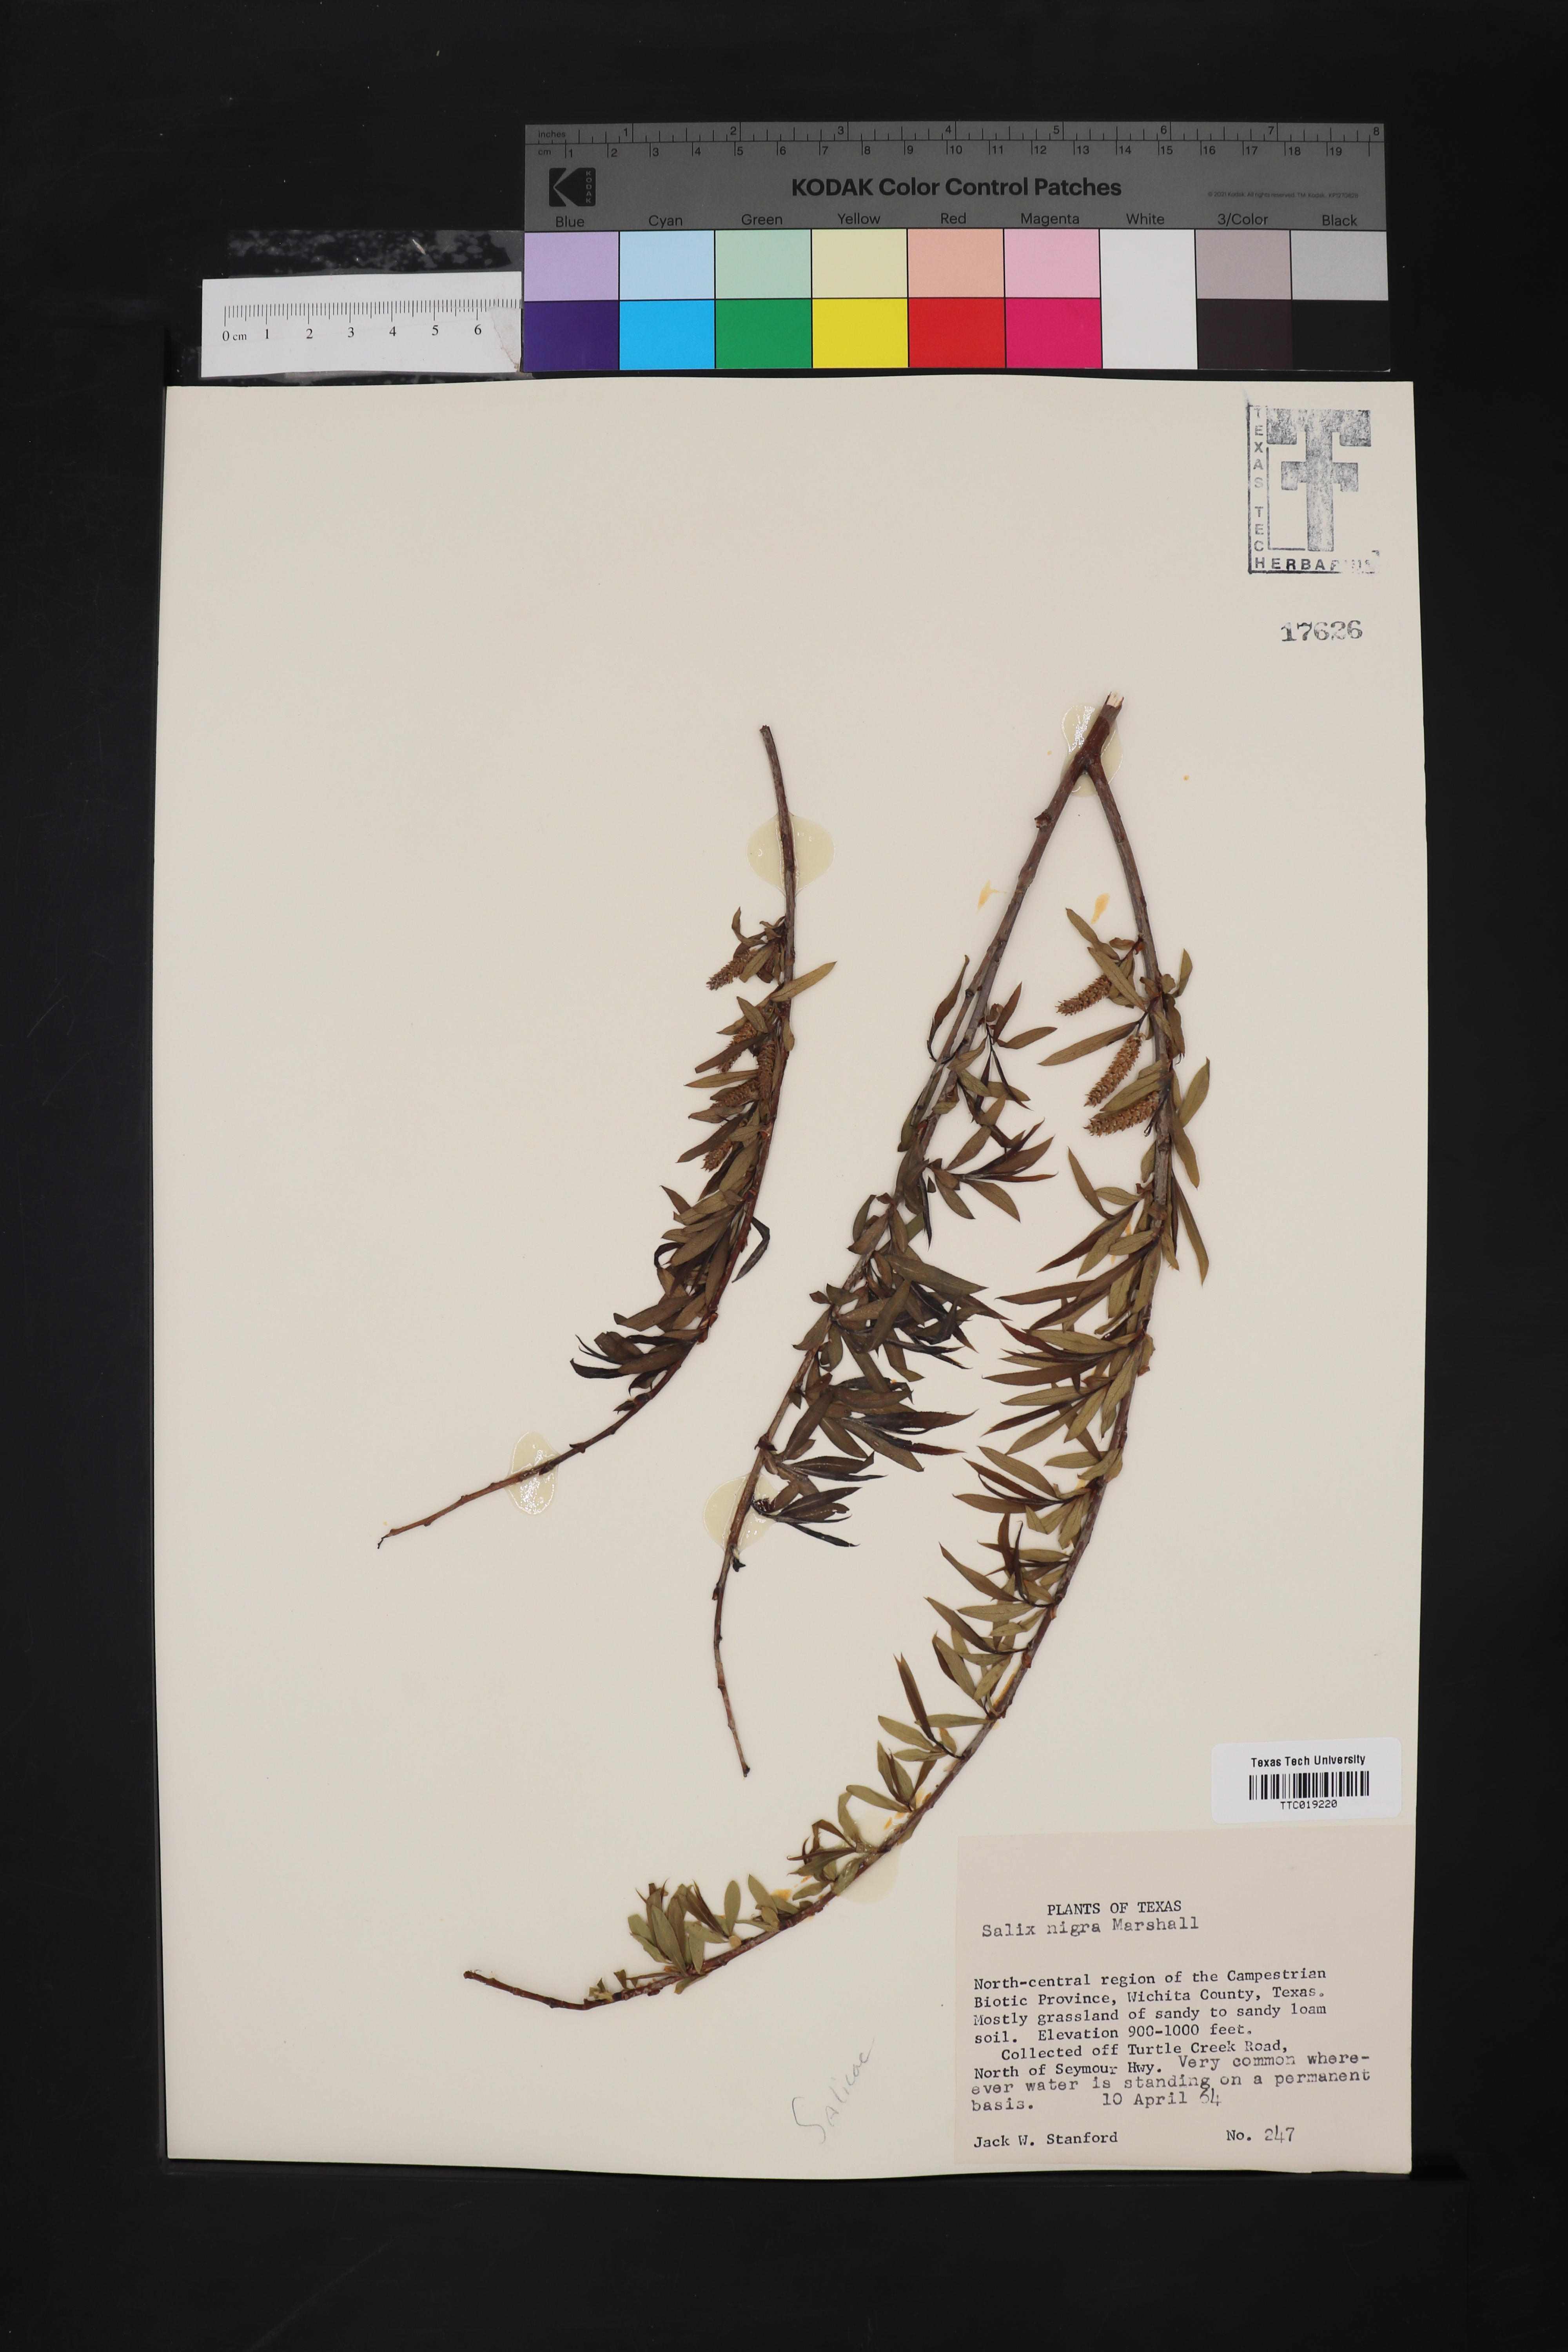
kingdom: Plantae
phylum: Tracheophyta
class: Magnoliopsida
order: Malpighiales
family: Salicaceae
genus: Salix
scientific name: Salix nigra
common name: Black willow
